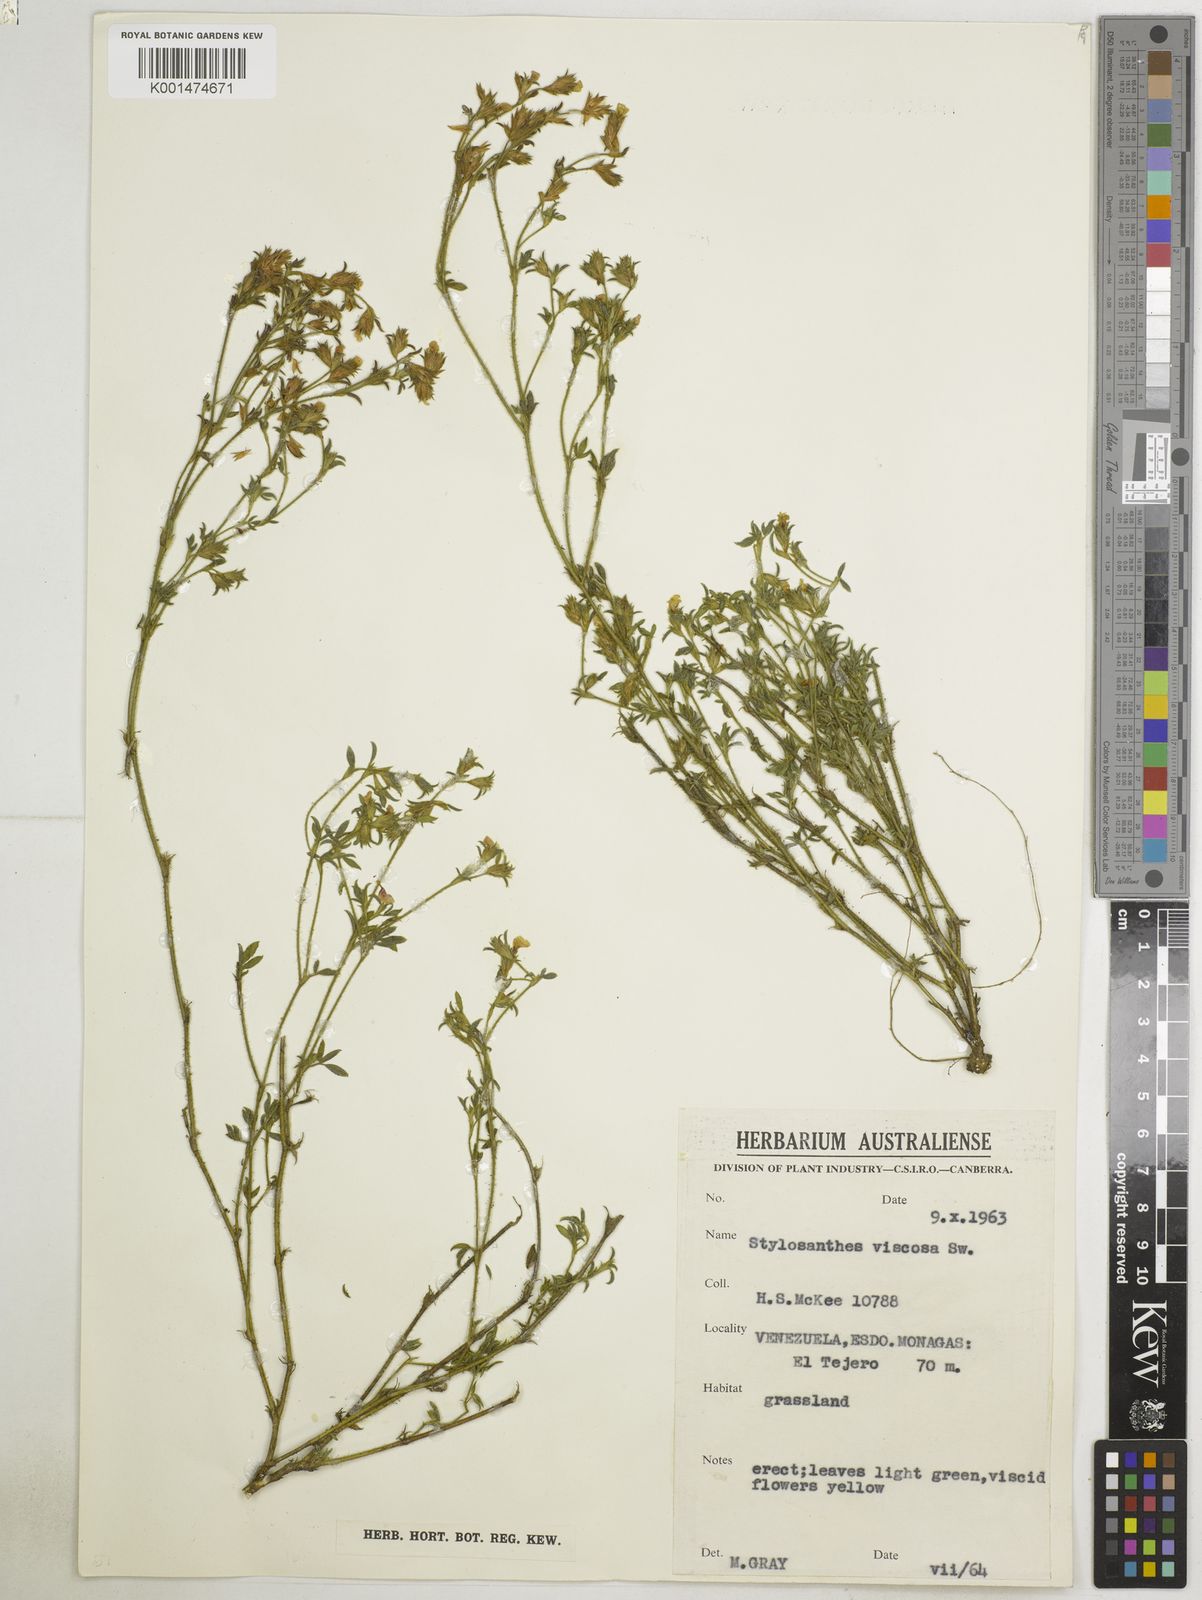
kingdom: Plantae
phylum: Tracheophyta
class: Magnoliopsida
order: Fabales
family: Fabaceae
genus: Stylosanthes
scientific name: Stylosanthes viscosa
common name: Viscid pencil-flower
